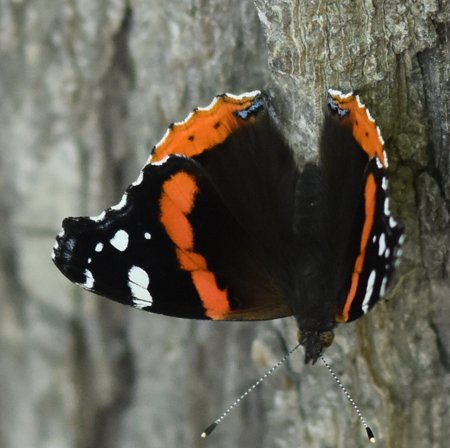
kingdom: Animalia
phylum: Arthropoda
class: Insecta
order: Lepidoptera
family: Nymphalidae
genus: Vanessa
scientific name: Vanessa atalanta
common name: Red Admiral
